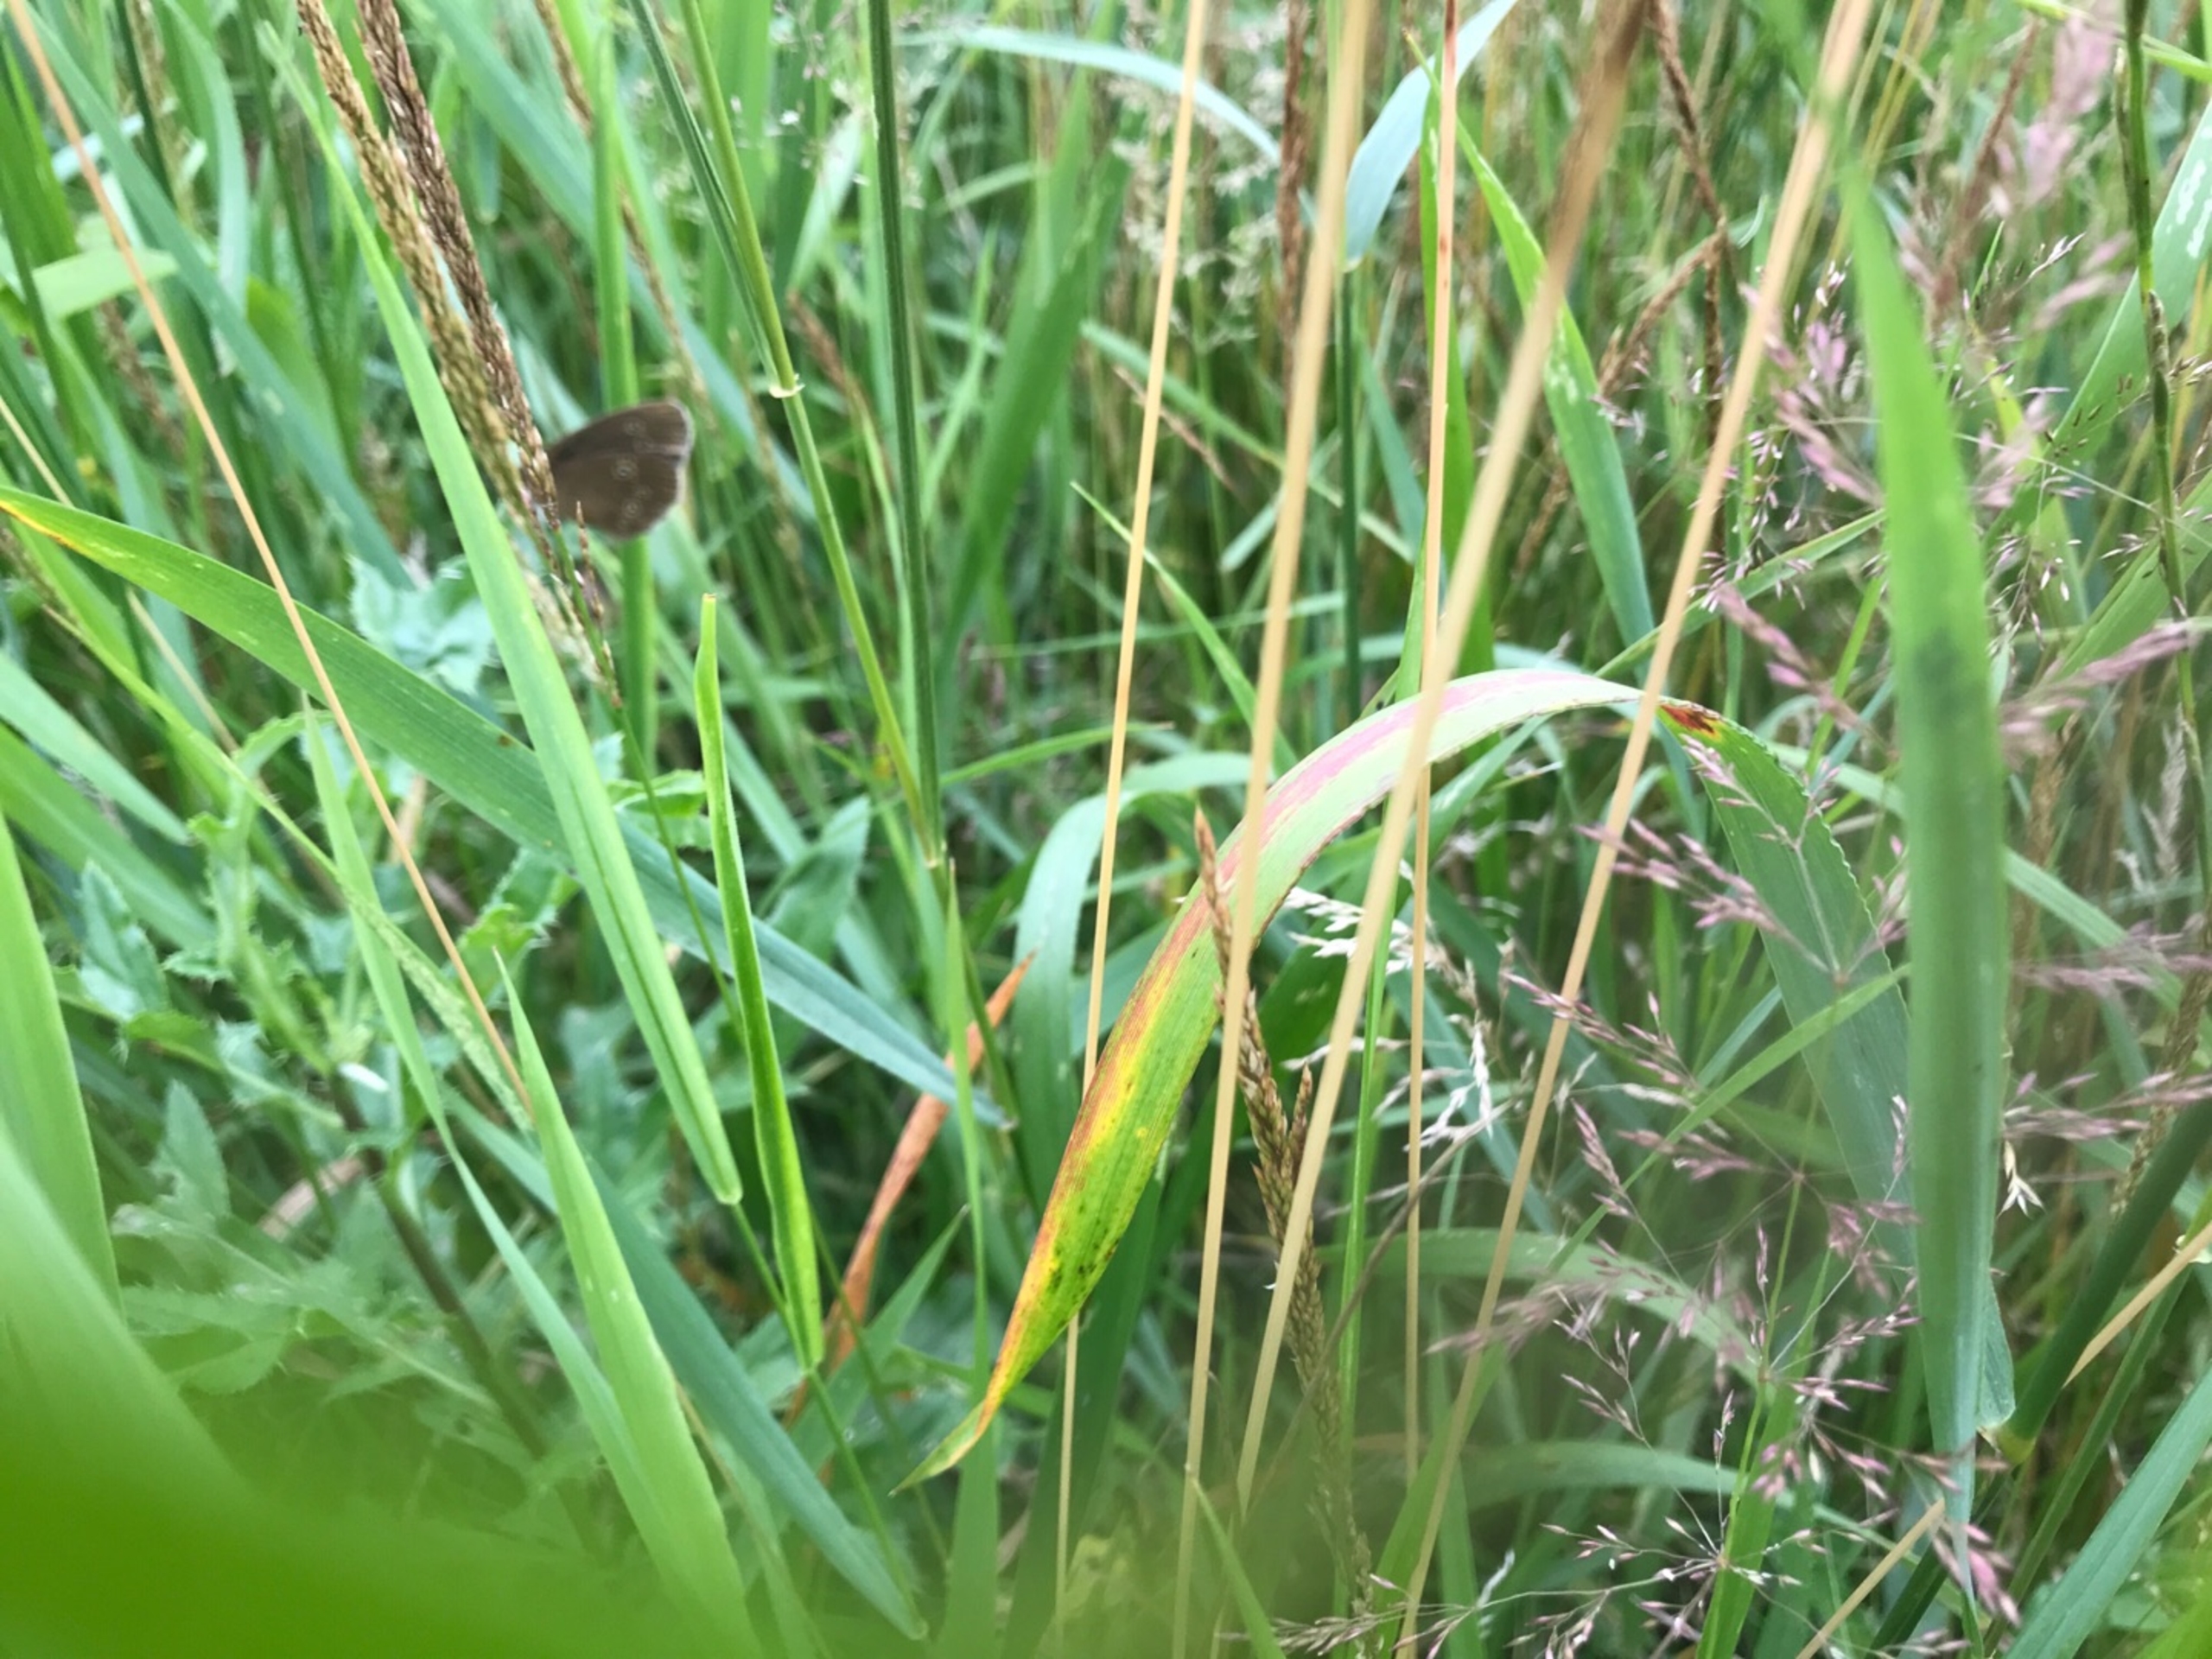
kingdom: Animalia
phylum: Arthropoda
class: Insecta
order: Lepidoptera
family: Nymphalidae
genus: Aphantopus
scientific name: Aphantopus hyperantus
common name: Engrandøje
